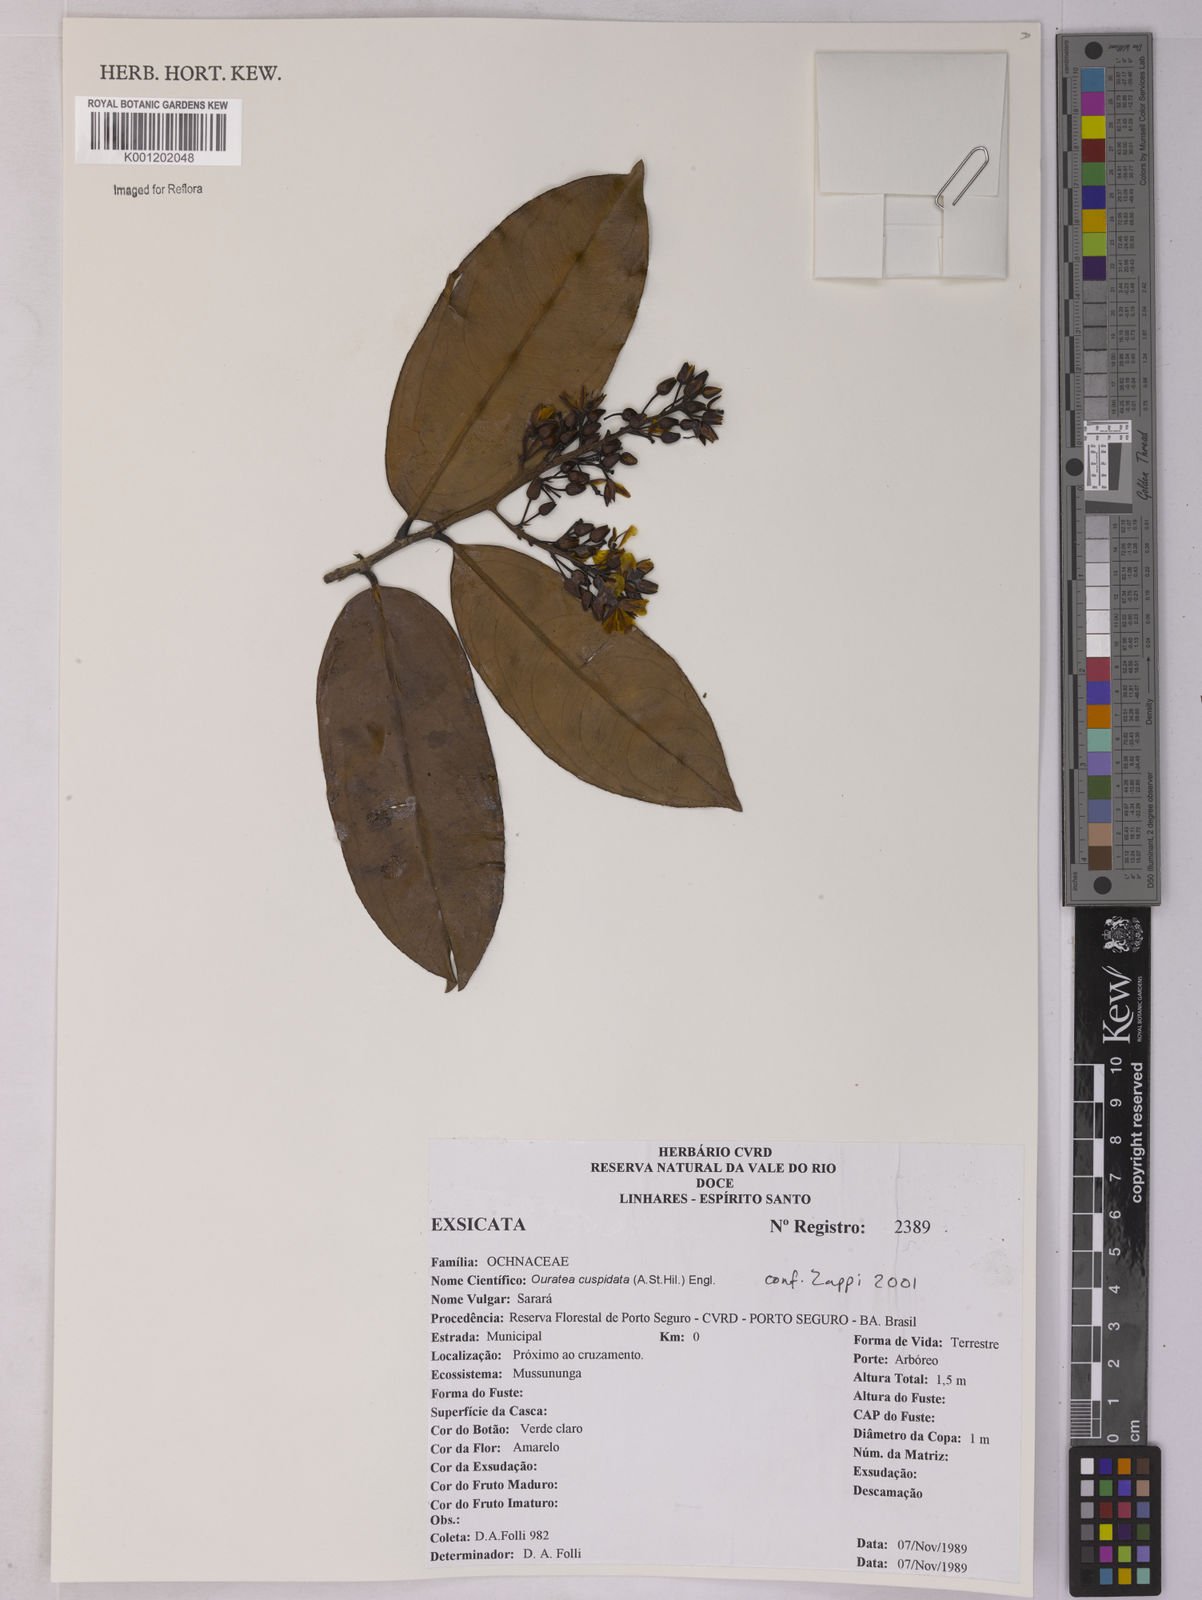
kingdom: Plantae
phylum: Tracheophyta
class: Magnoliopsida
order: Malpighiales
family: Ochnaceae
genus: Ouratea
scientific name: Ouratea cuspidata
